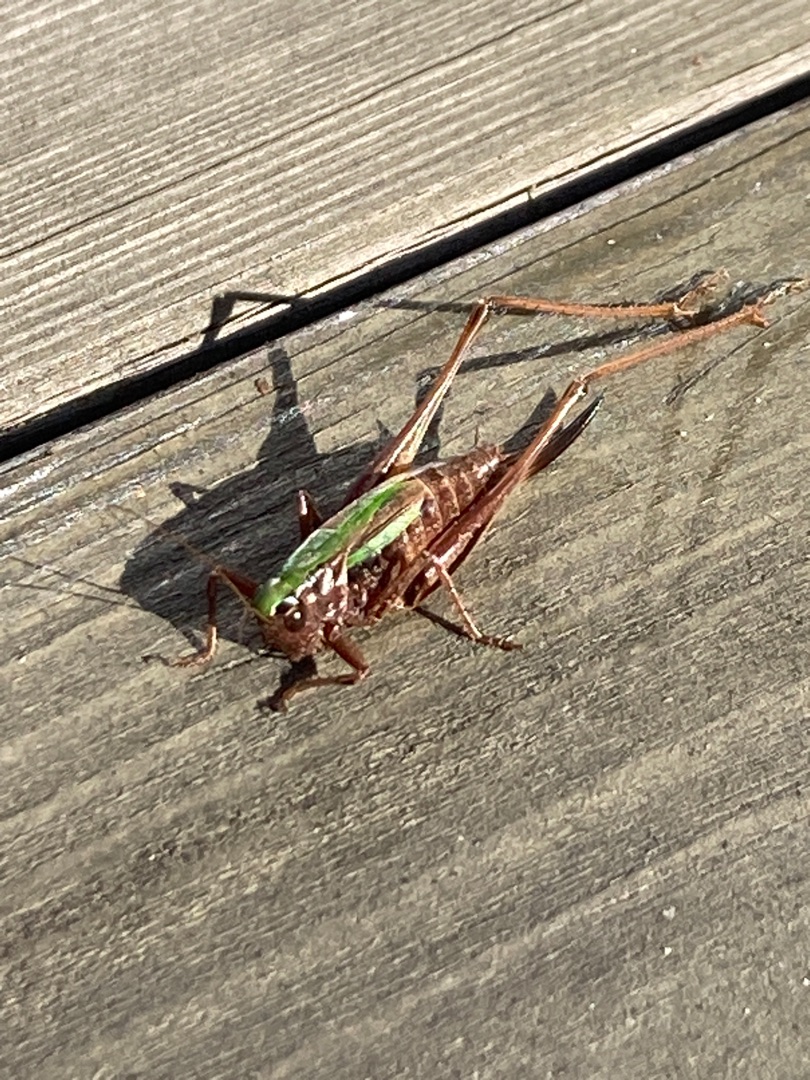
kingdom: Animalia
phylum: Arthropoda
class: Insecta
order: Orthoptera
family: Tettigoniidae
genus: Metrioptera
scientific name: Metrioptera brachyptera
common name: Hedegræshoppe
